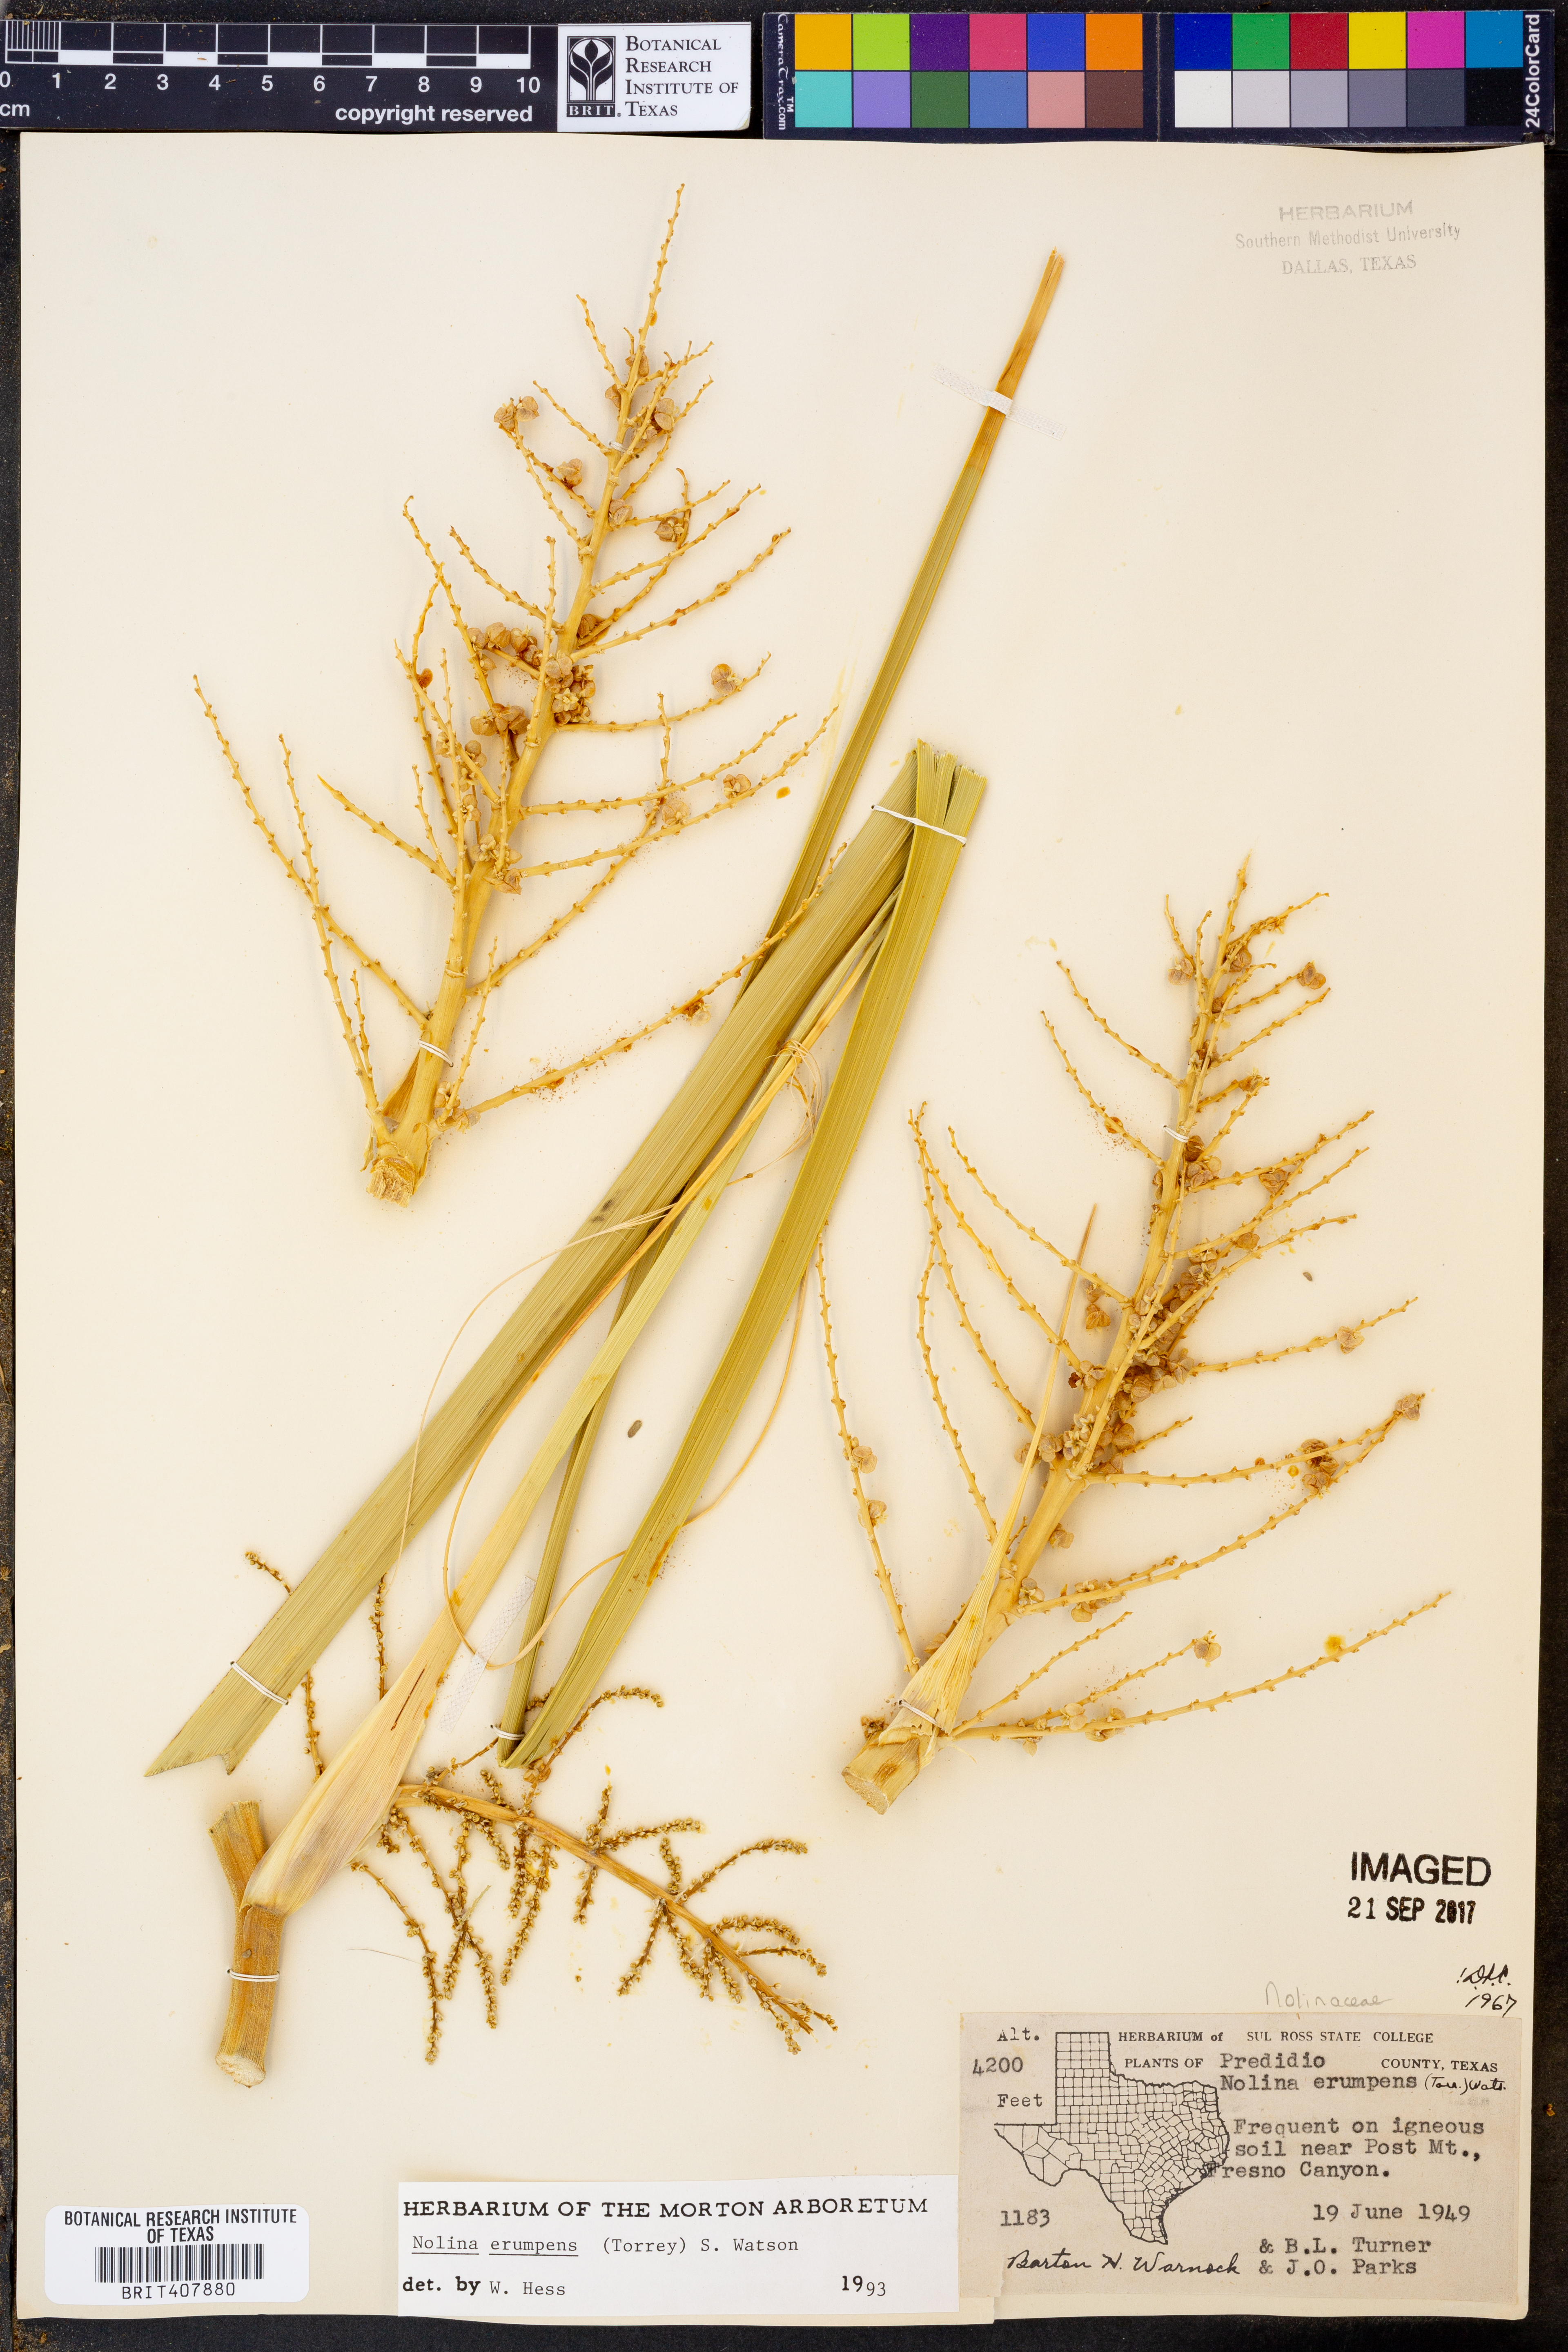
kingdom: Plantae
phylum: Tracheophyta
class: Liliopsida
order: Asparagales
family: Asparagaceae
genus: Nolina
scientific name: Nolina erumpens
